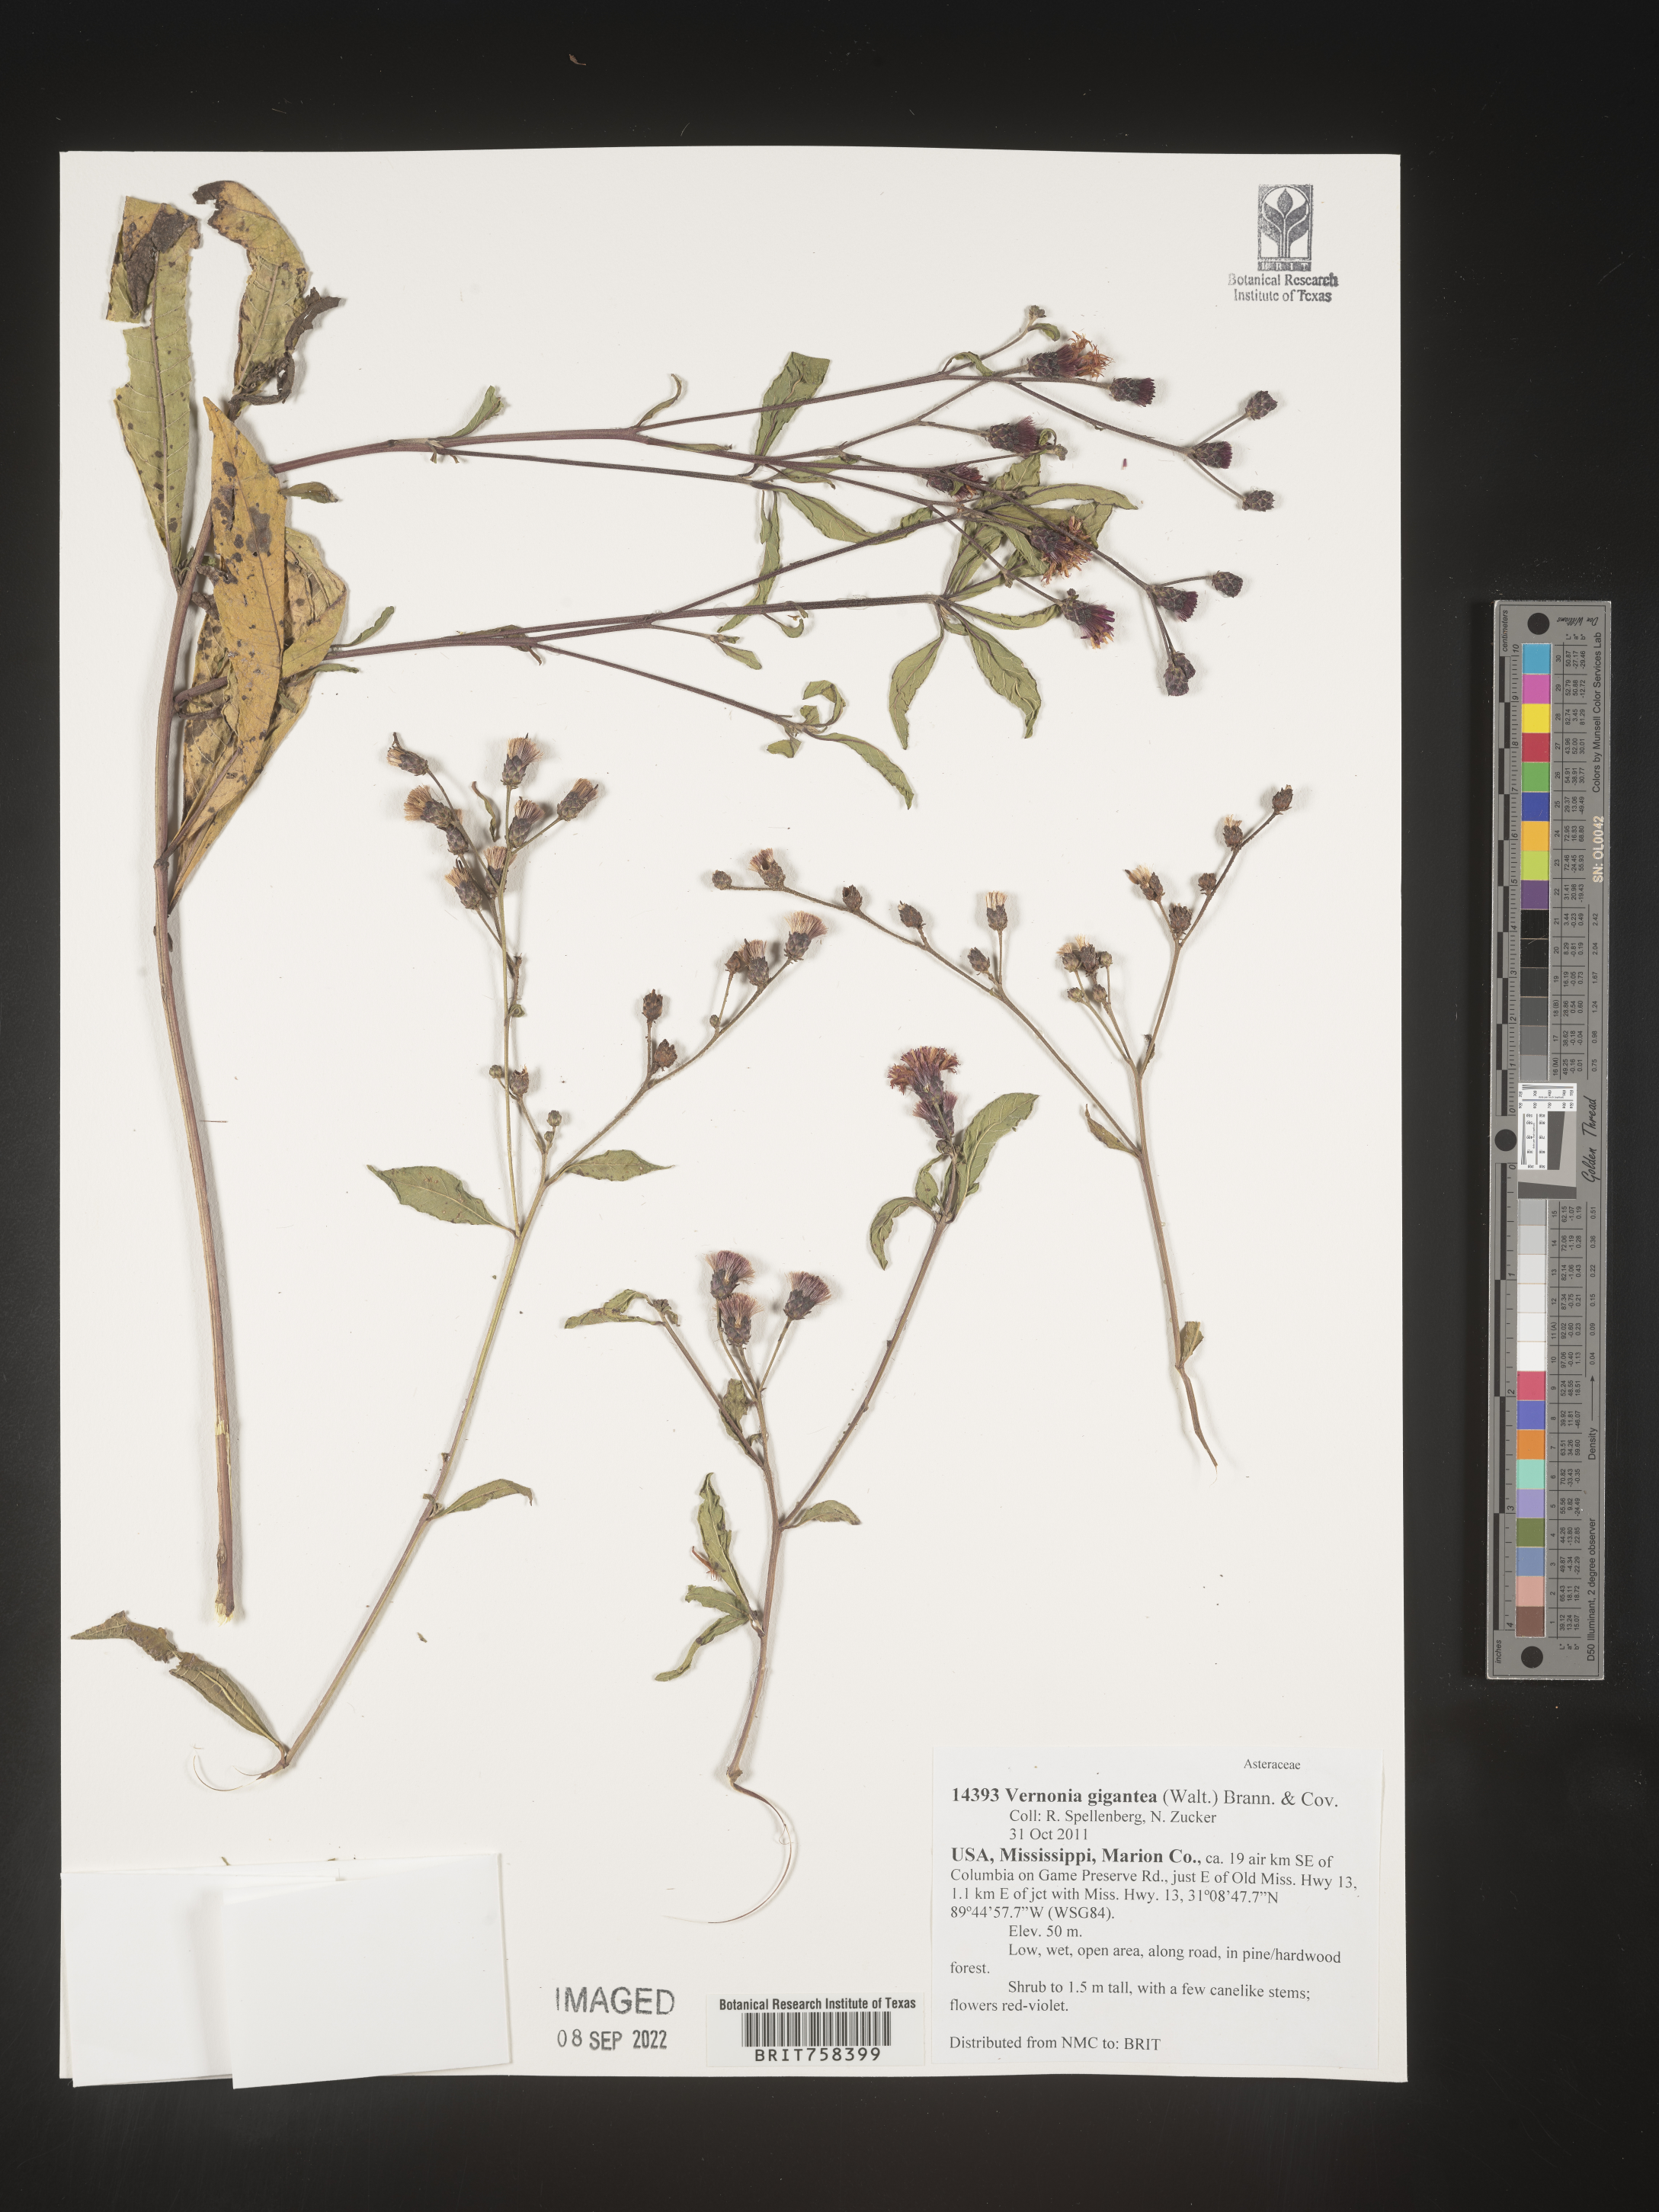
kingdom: Plantae
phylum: Tracheophyta
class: Magnoliopsida
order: Asterales
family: Asteraceae
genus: Vernonia
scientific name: Vernonia gigantea
